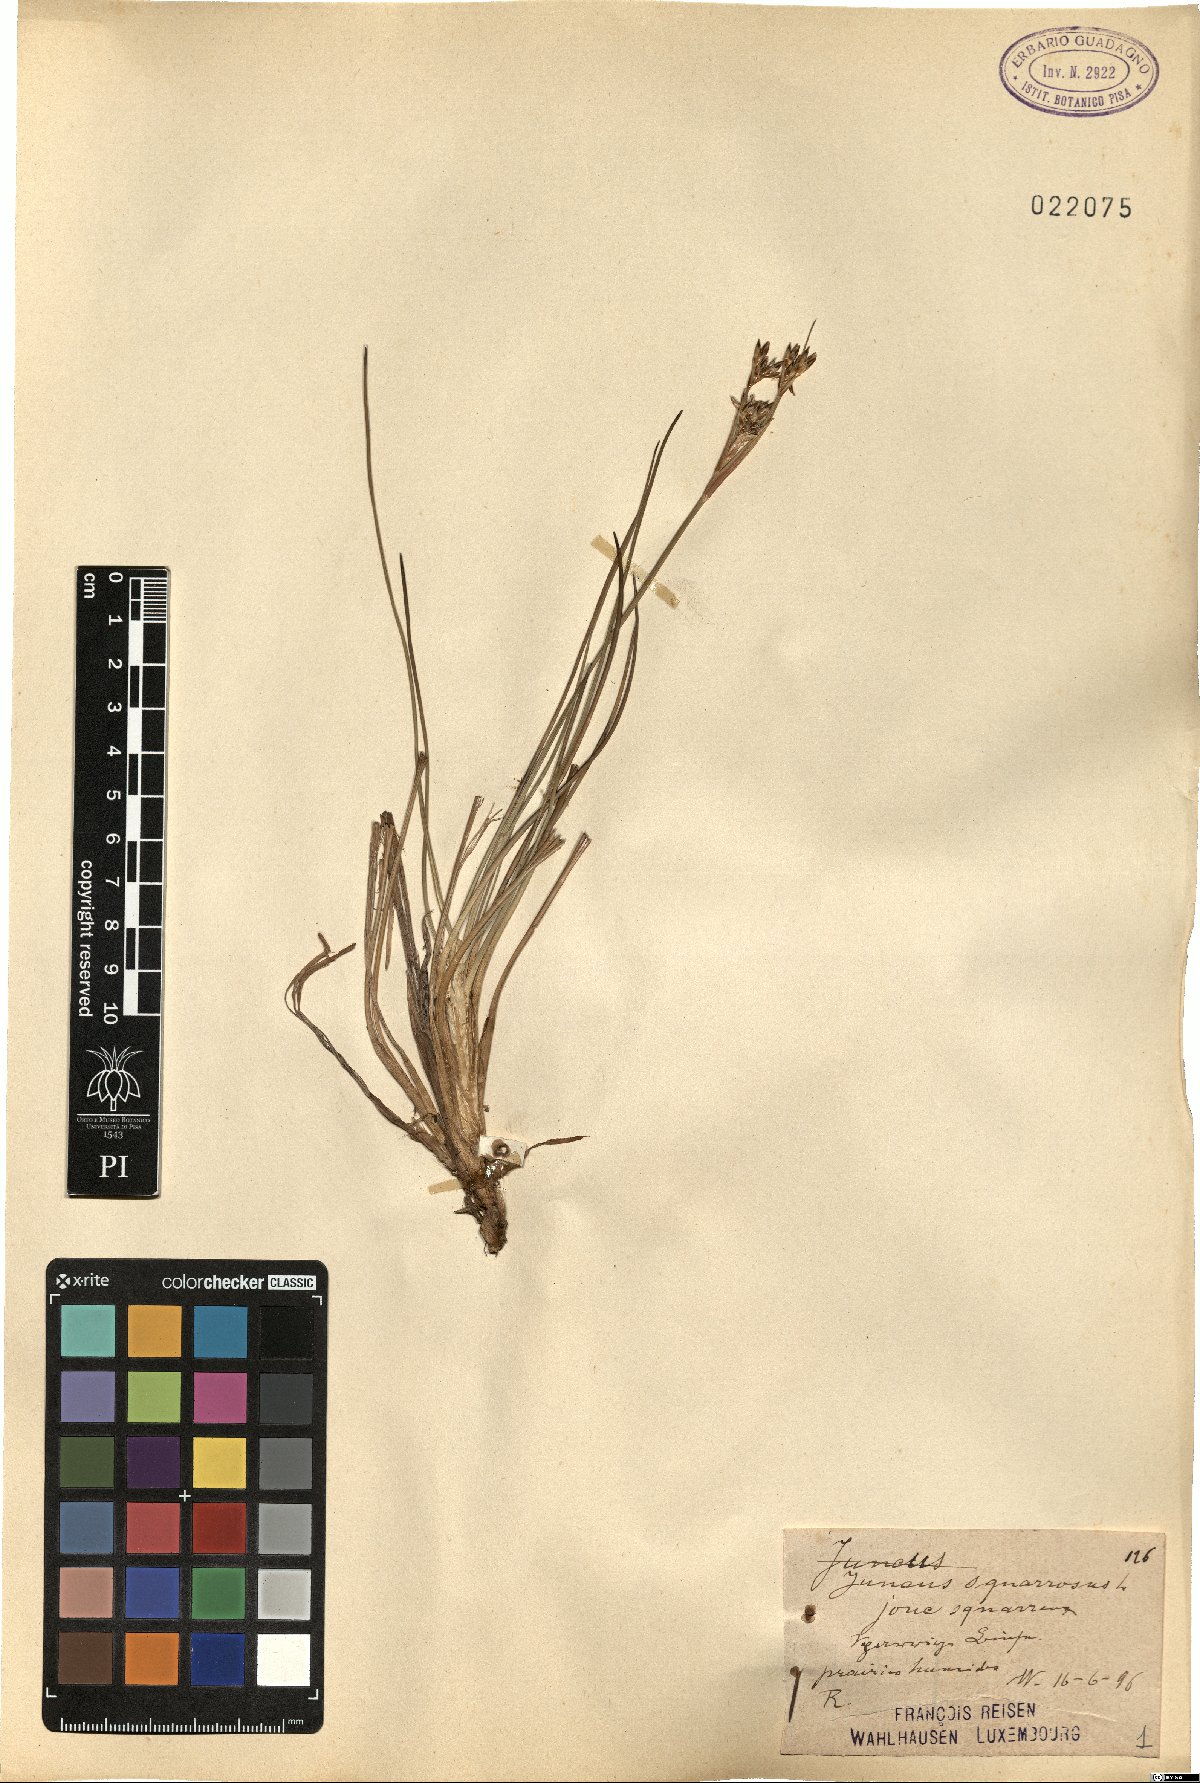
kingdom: Plantae
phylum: Tracheophyta
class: Liliopsida
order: Poales
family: Juncaceae
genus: Juncus
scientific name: Juncus squarrosus
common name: Heath rush
